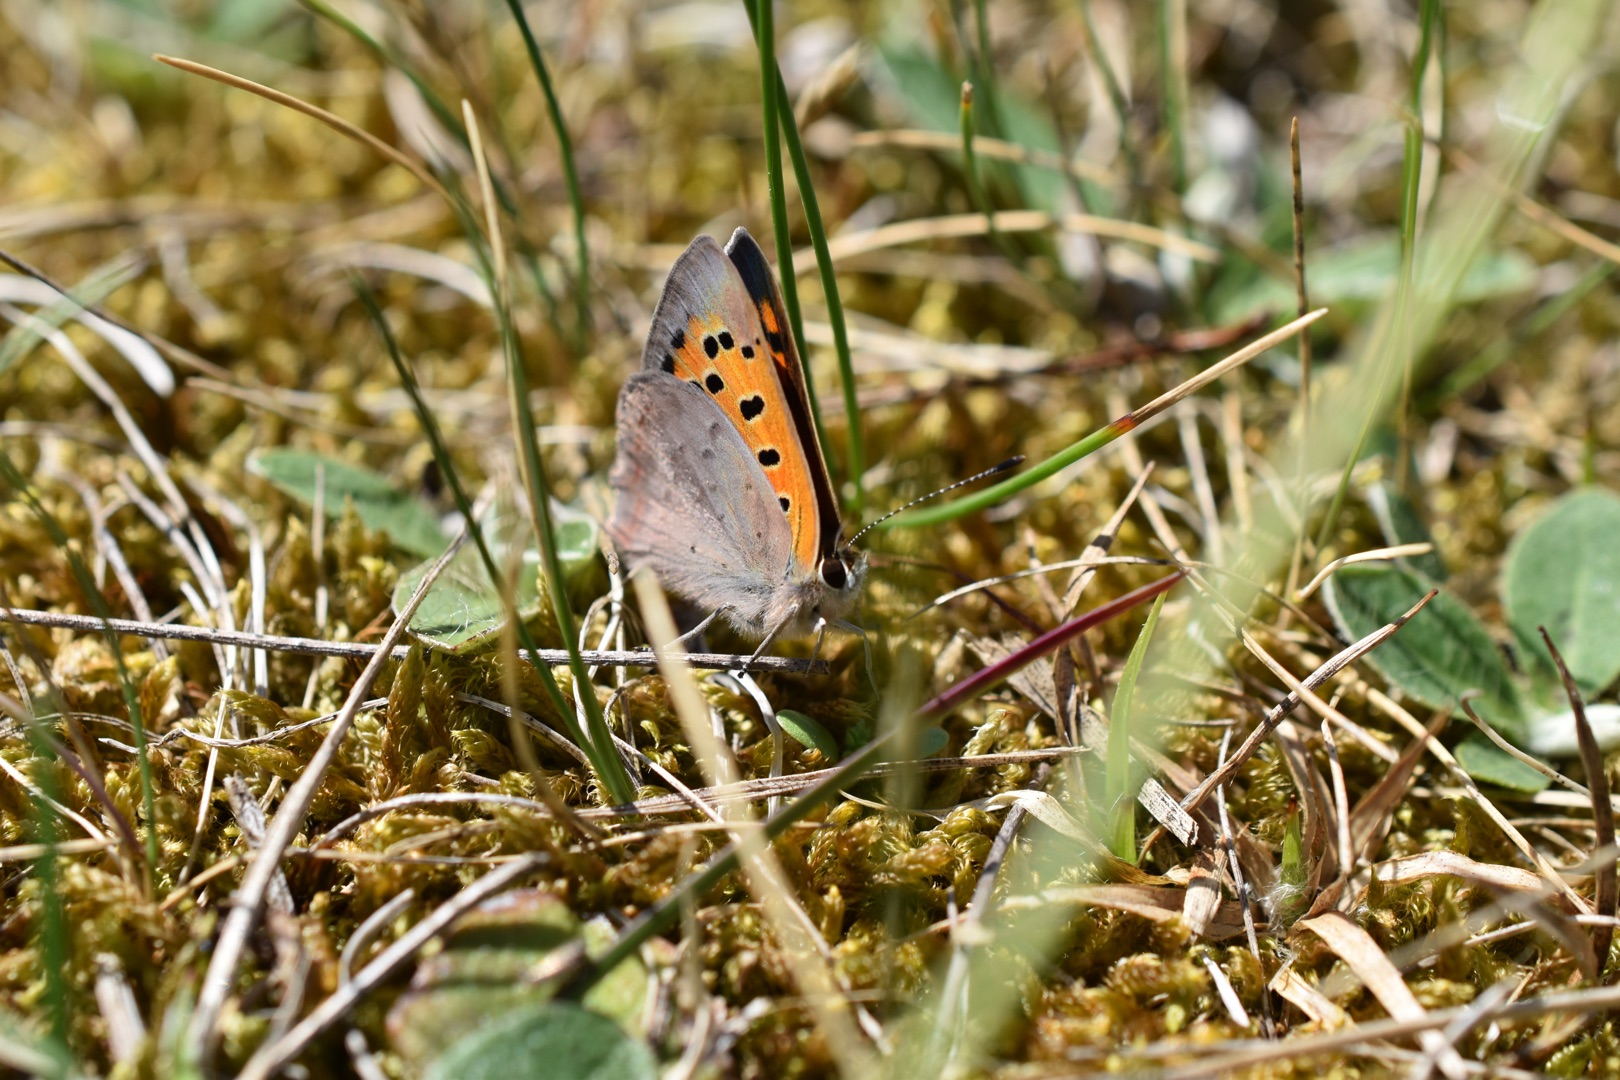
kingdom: Animalia
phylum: Arthropoda
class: Insecta
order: Lepidoptera
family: Lycaenidae
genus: Lycaena
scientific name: Lycaena phlaeas
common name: Lille ildfugl
